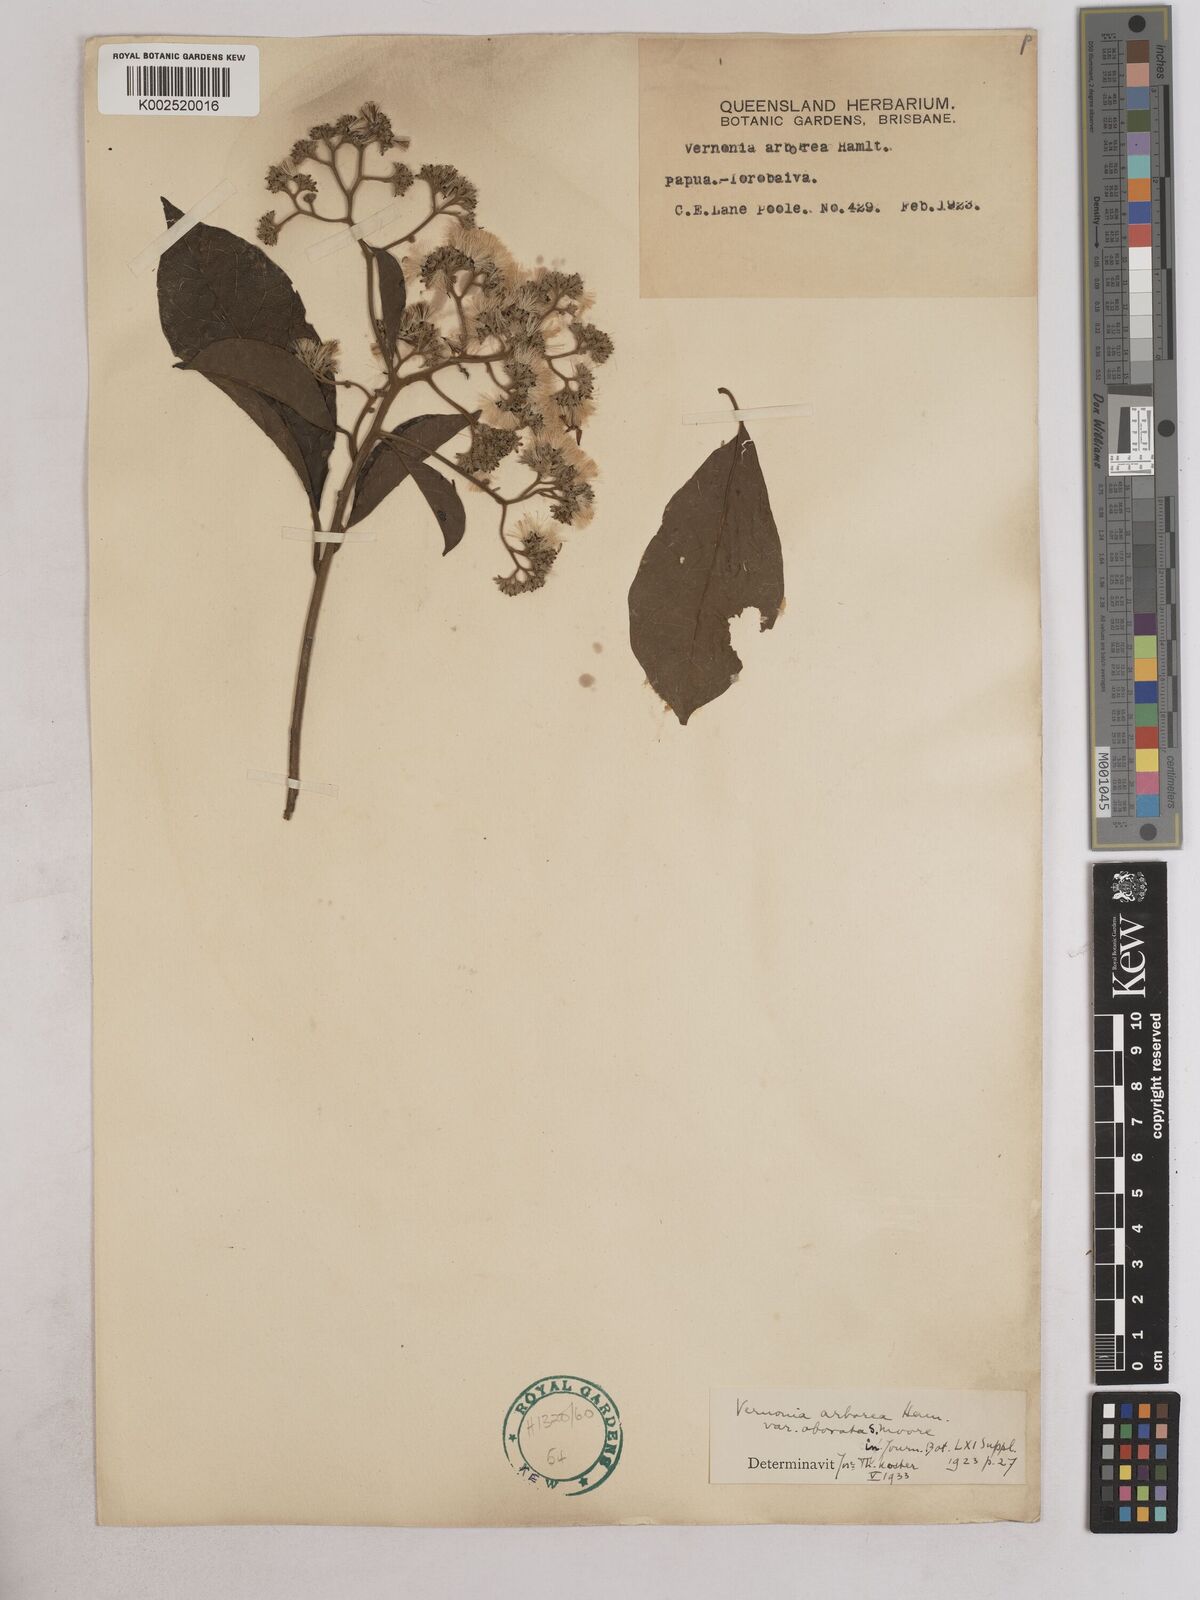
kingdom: Plantae
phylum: Tracheophyta
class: Magnoliopsida
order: Asterales
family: Asteraceae
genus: Strobocalyx
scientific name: Strobocalyx arborea
